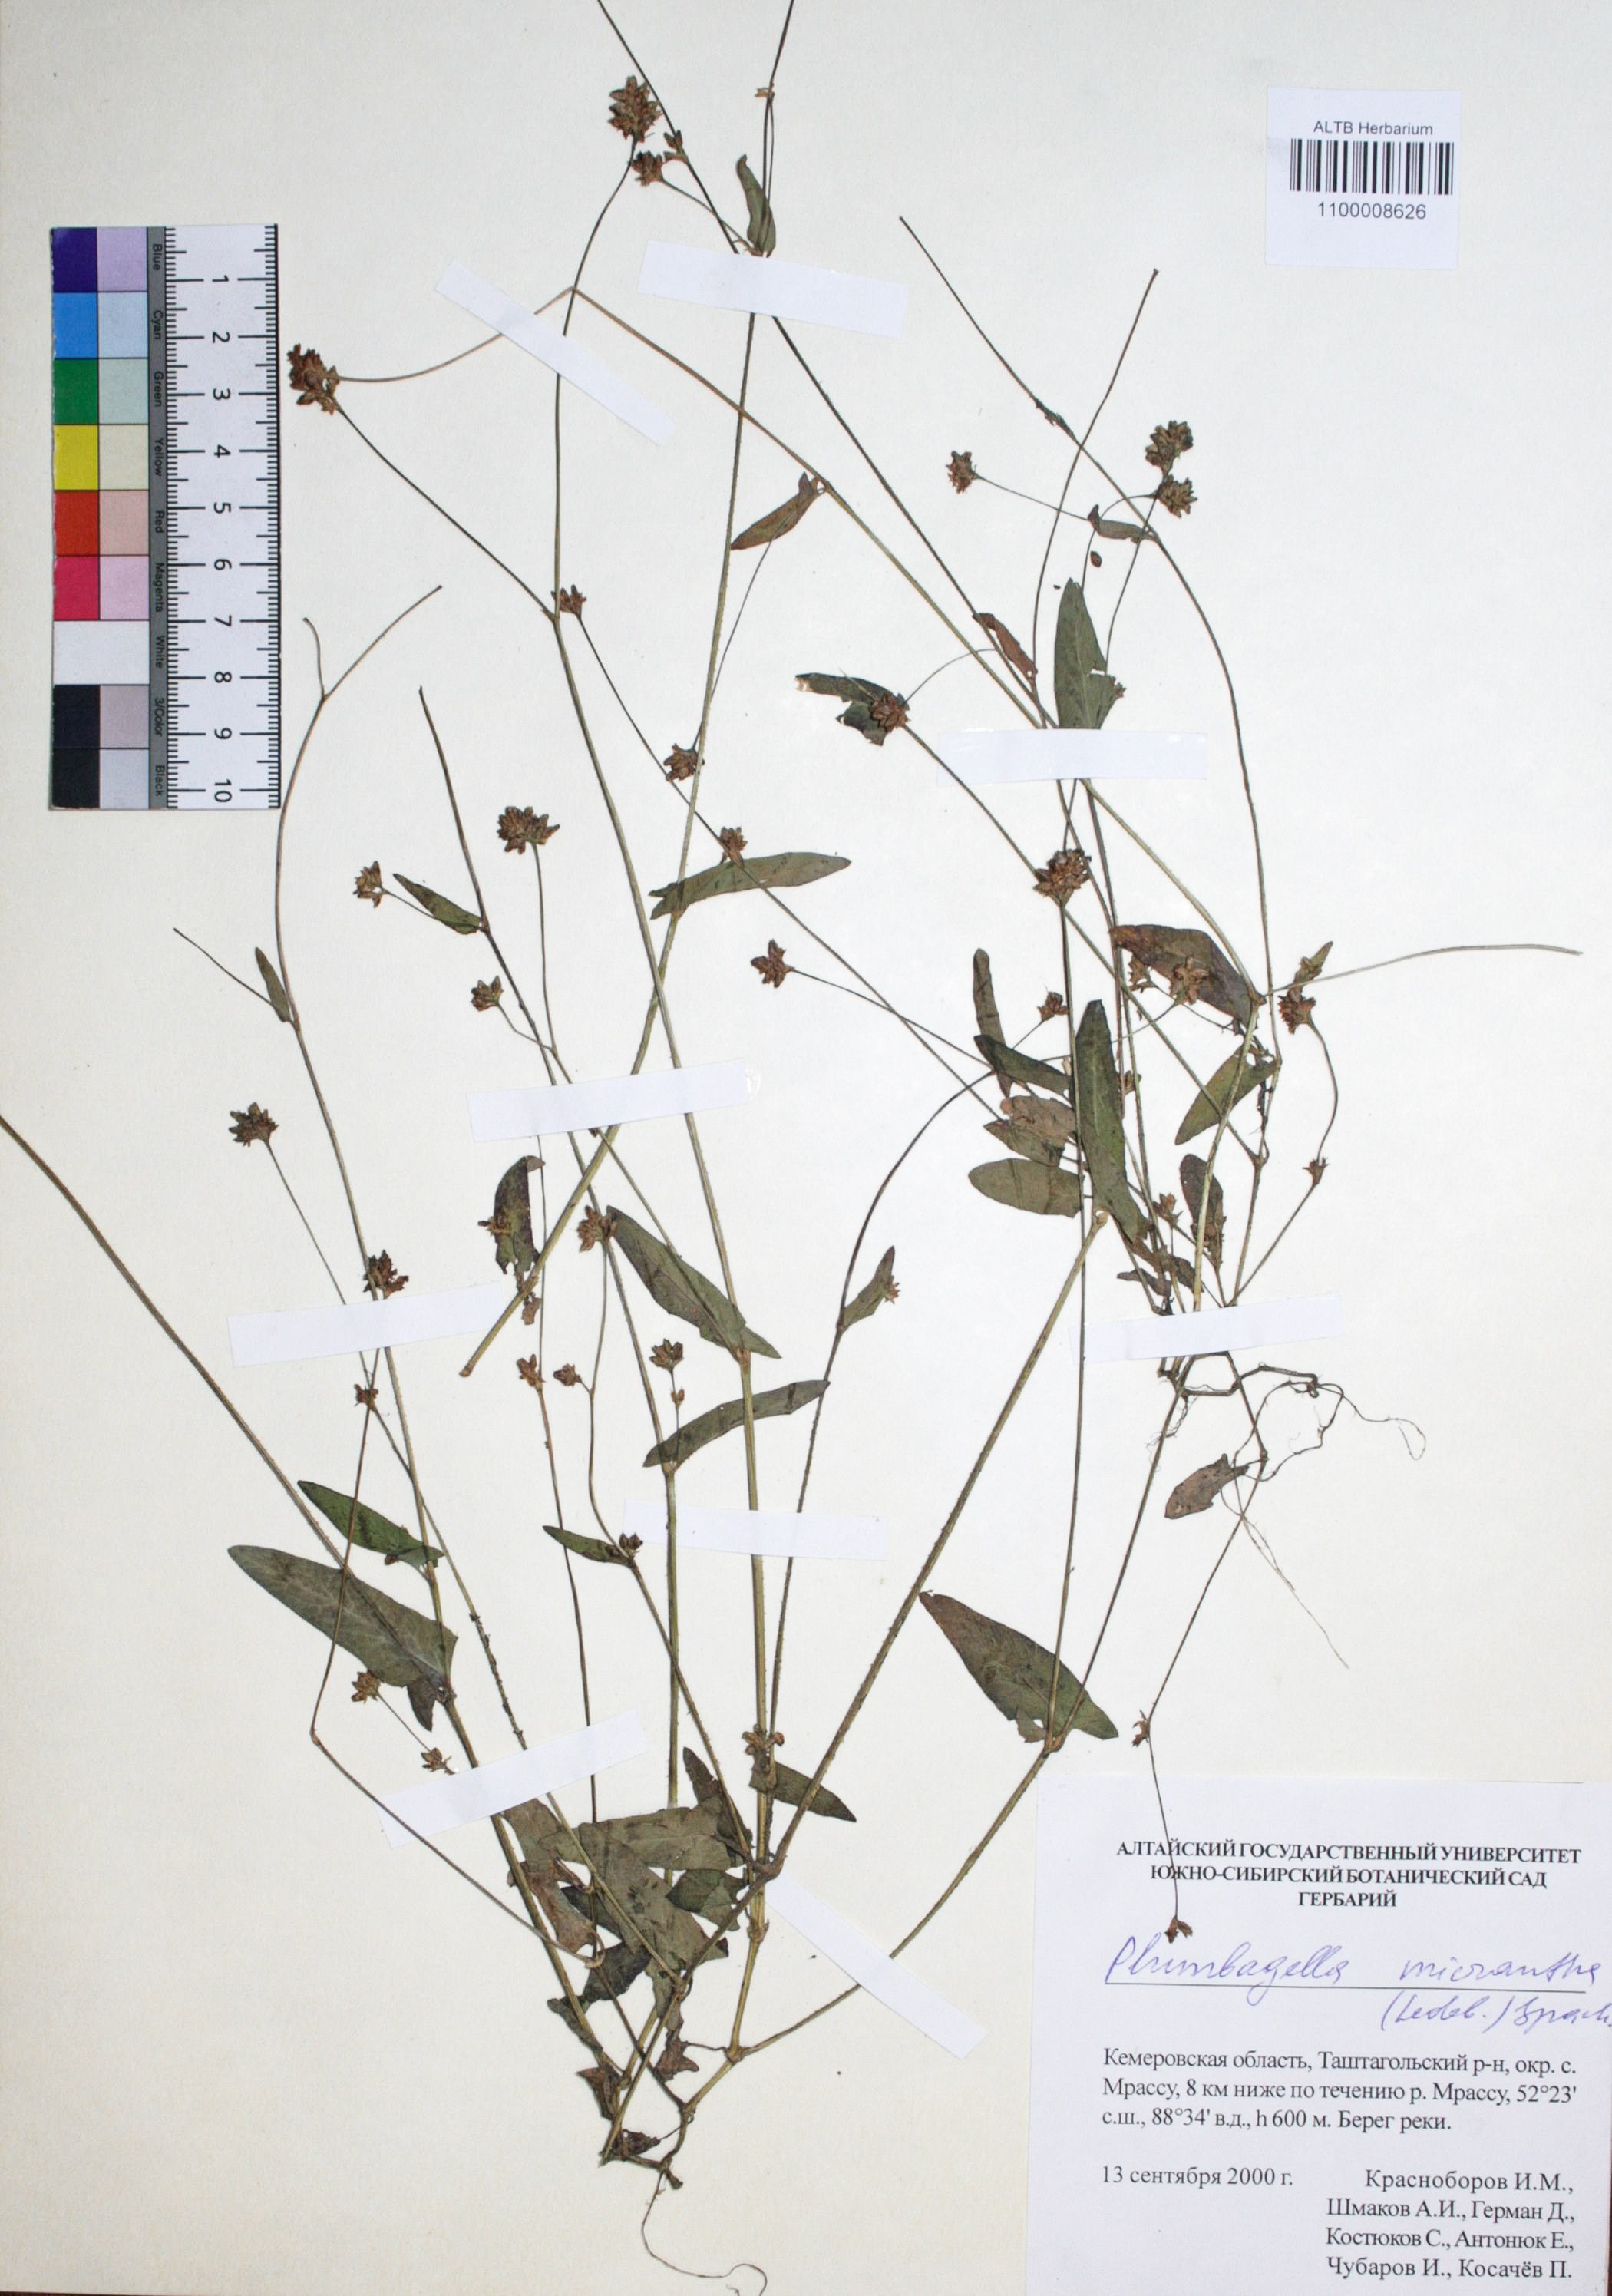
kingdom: Plantae
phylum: Tracheophyta
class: Magnoliopsida
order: Caryophyllales
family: Plumbaginaceae
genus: Plumbagella
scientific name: Plumbagella micrantha
